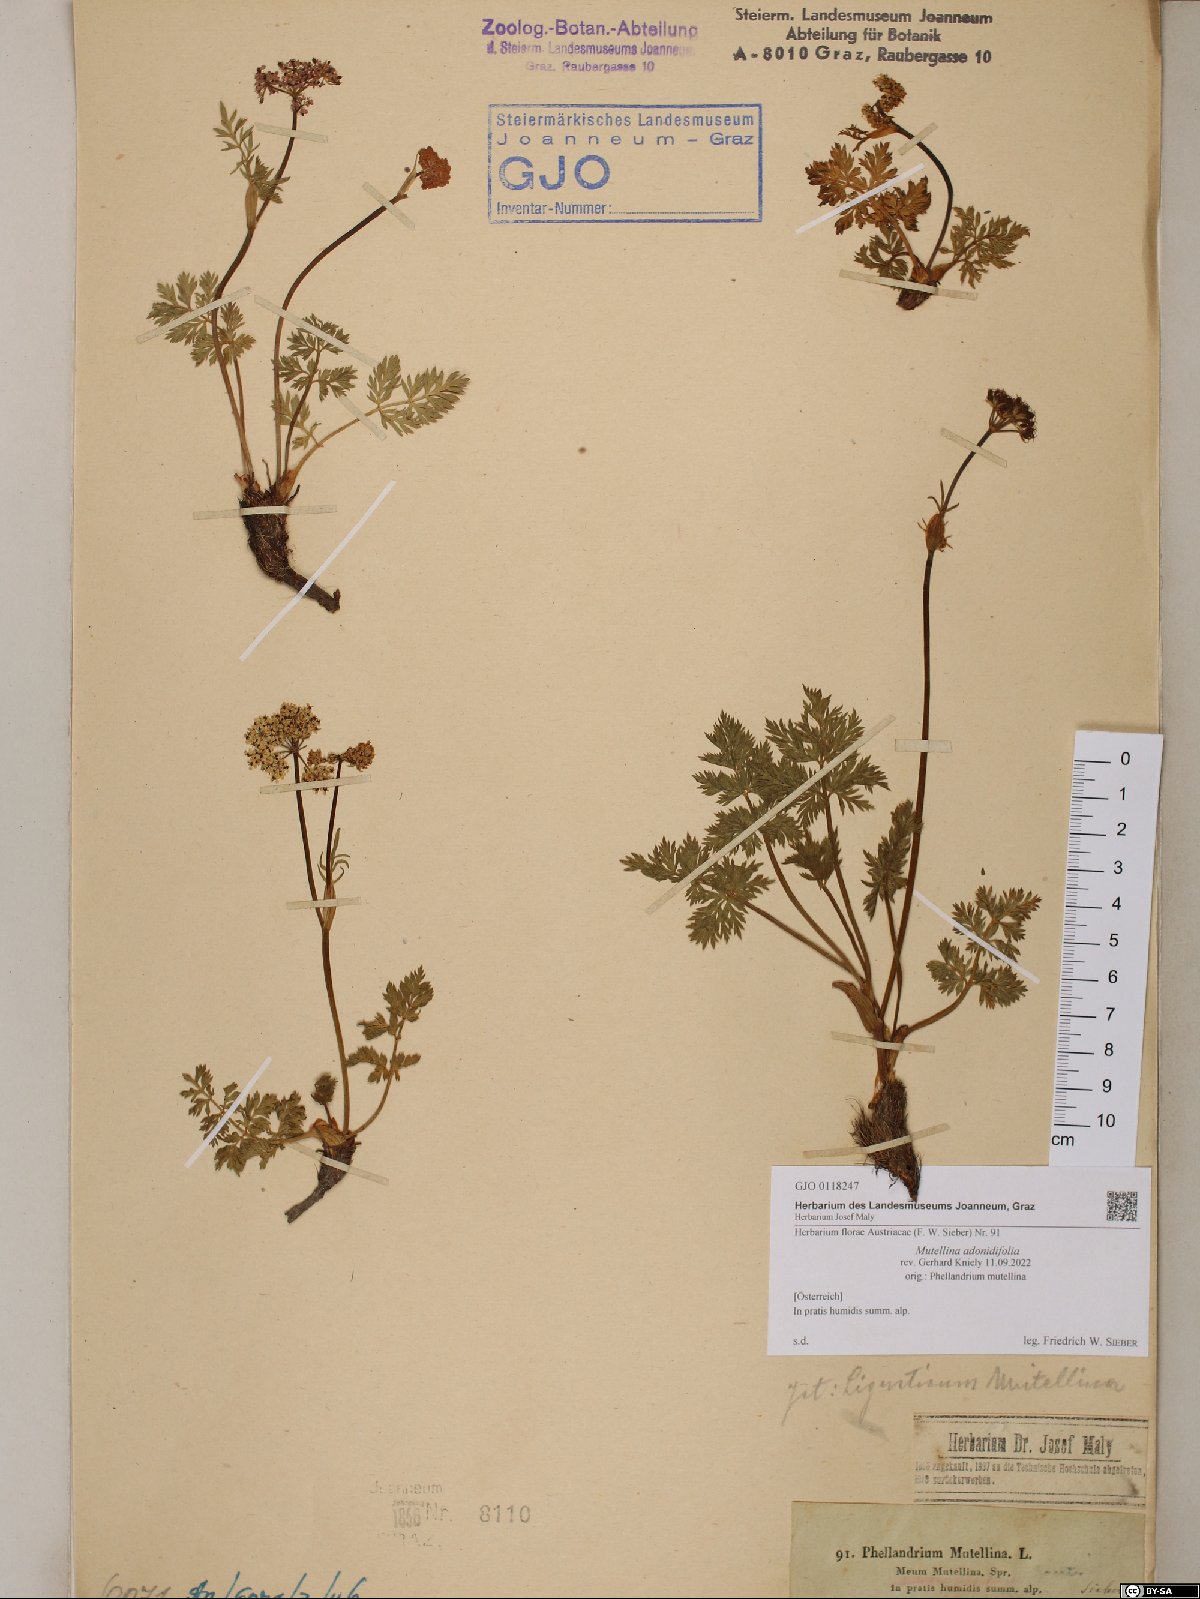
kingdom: Plantae
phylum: Tracheophyta
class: Magnoliopsida
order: Apiales
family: Apiaceae
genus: Mutellina
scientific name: Mutellina adonidifolia
